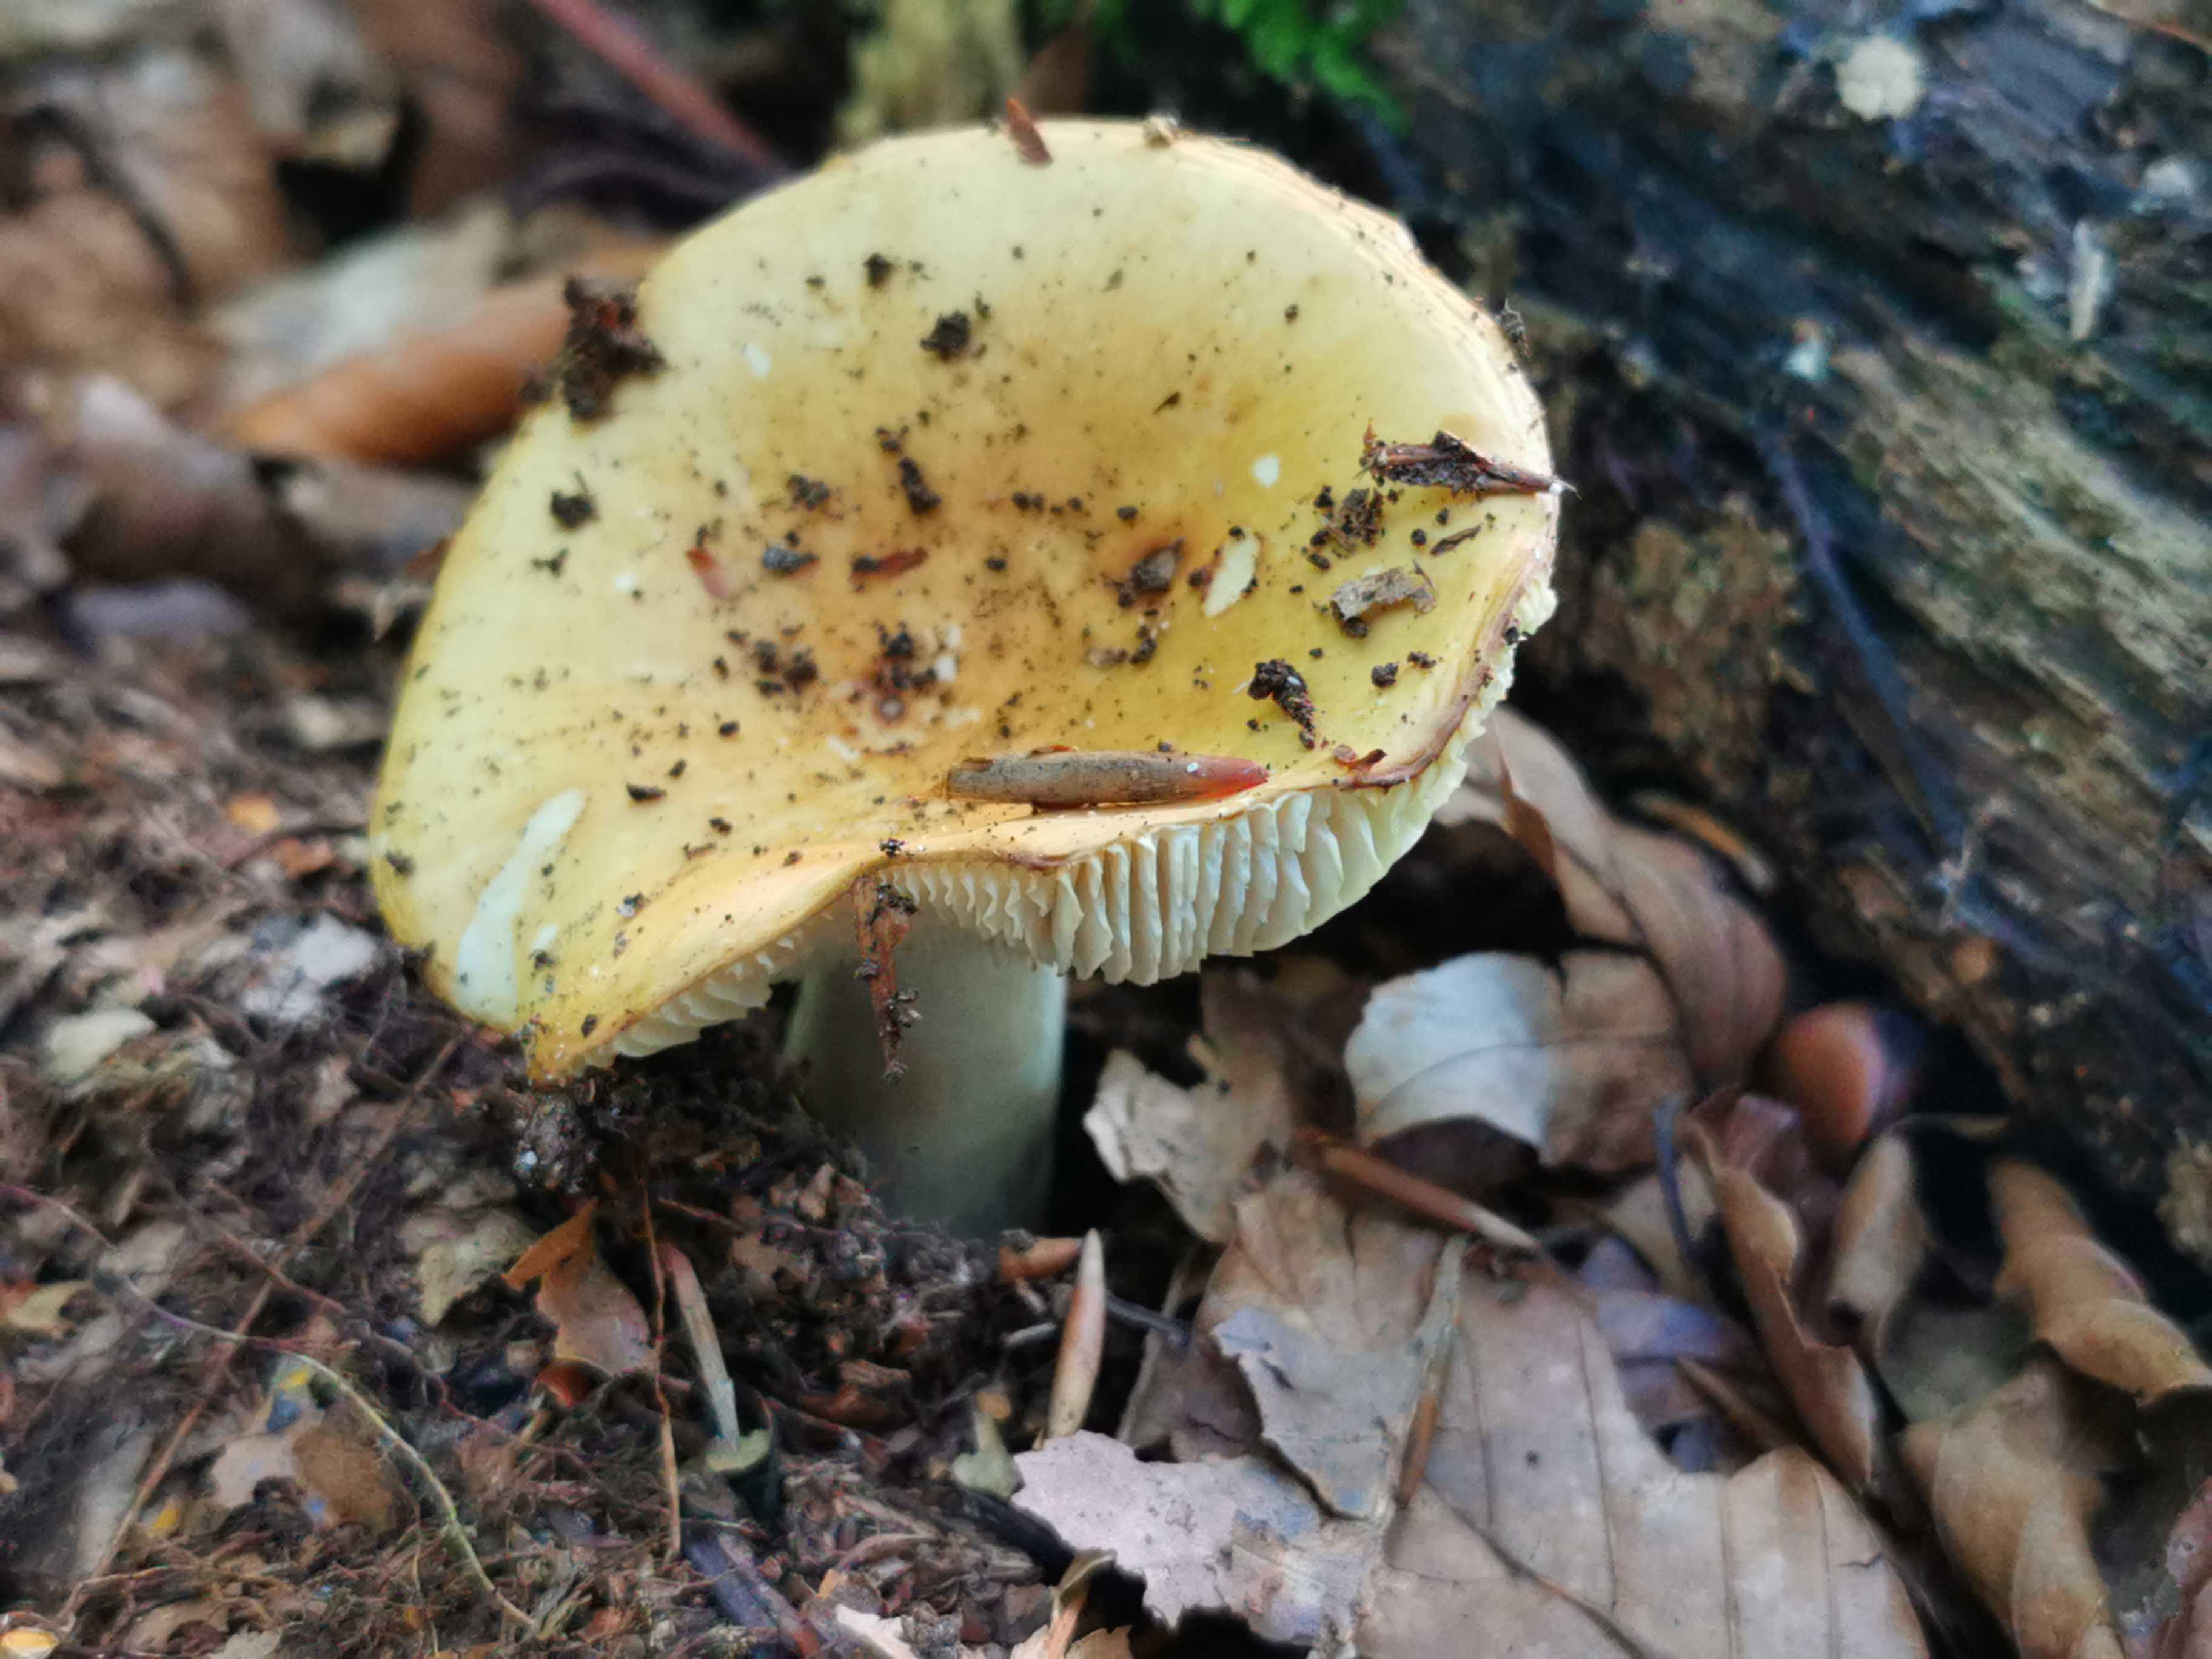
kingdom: Fungi
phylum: Basidiomycota
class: Agaricomycetes
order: Russulales
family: Russulaceae
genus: Russula
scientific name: Russula solaris
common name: sol-skørhat
